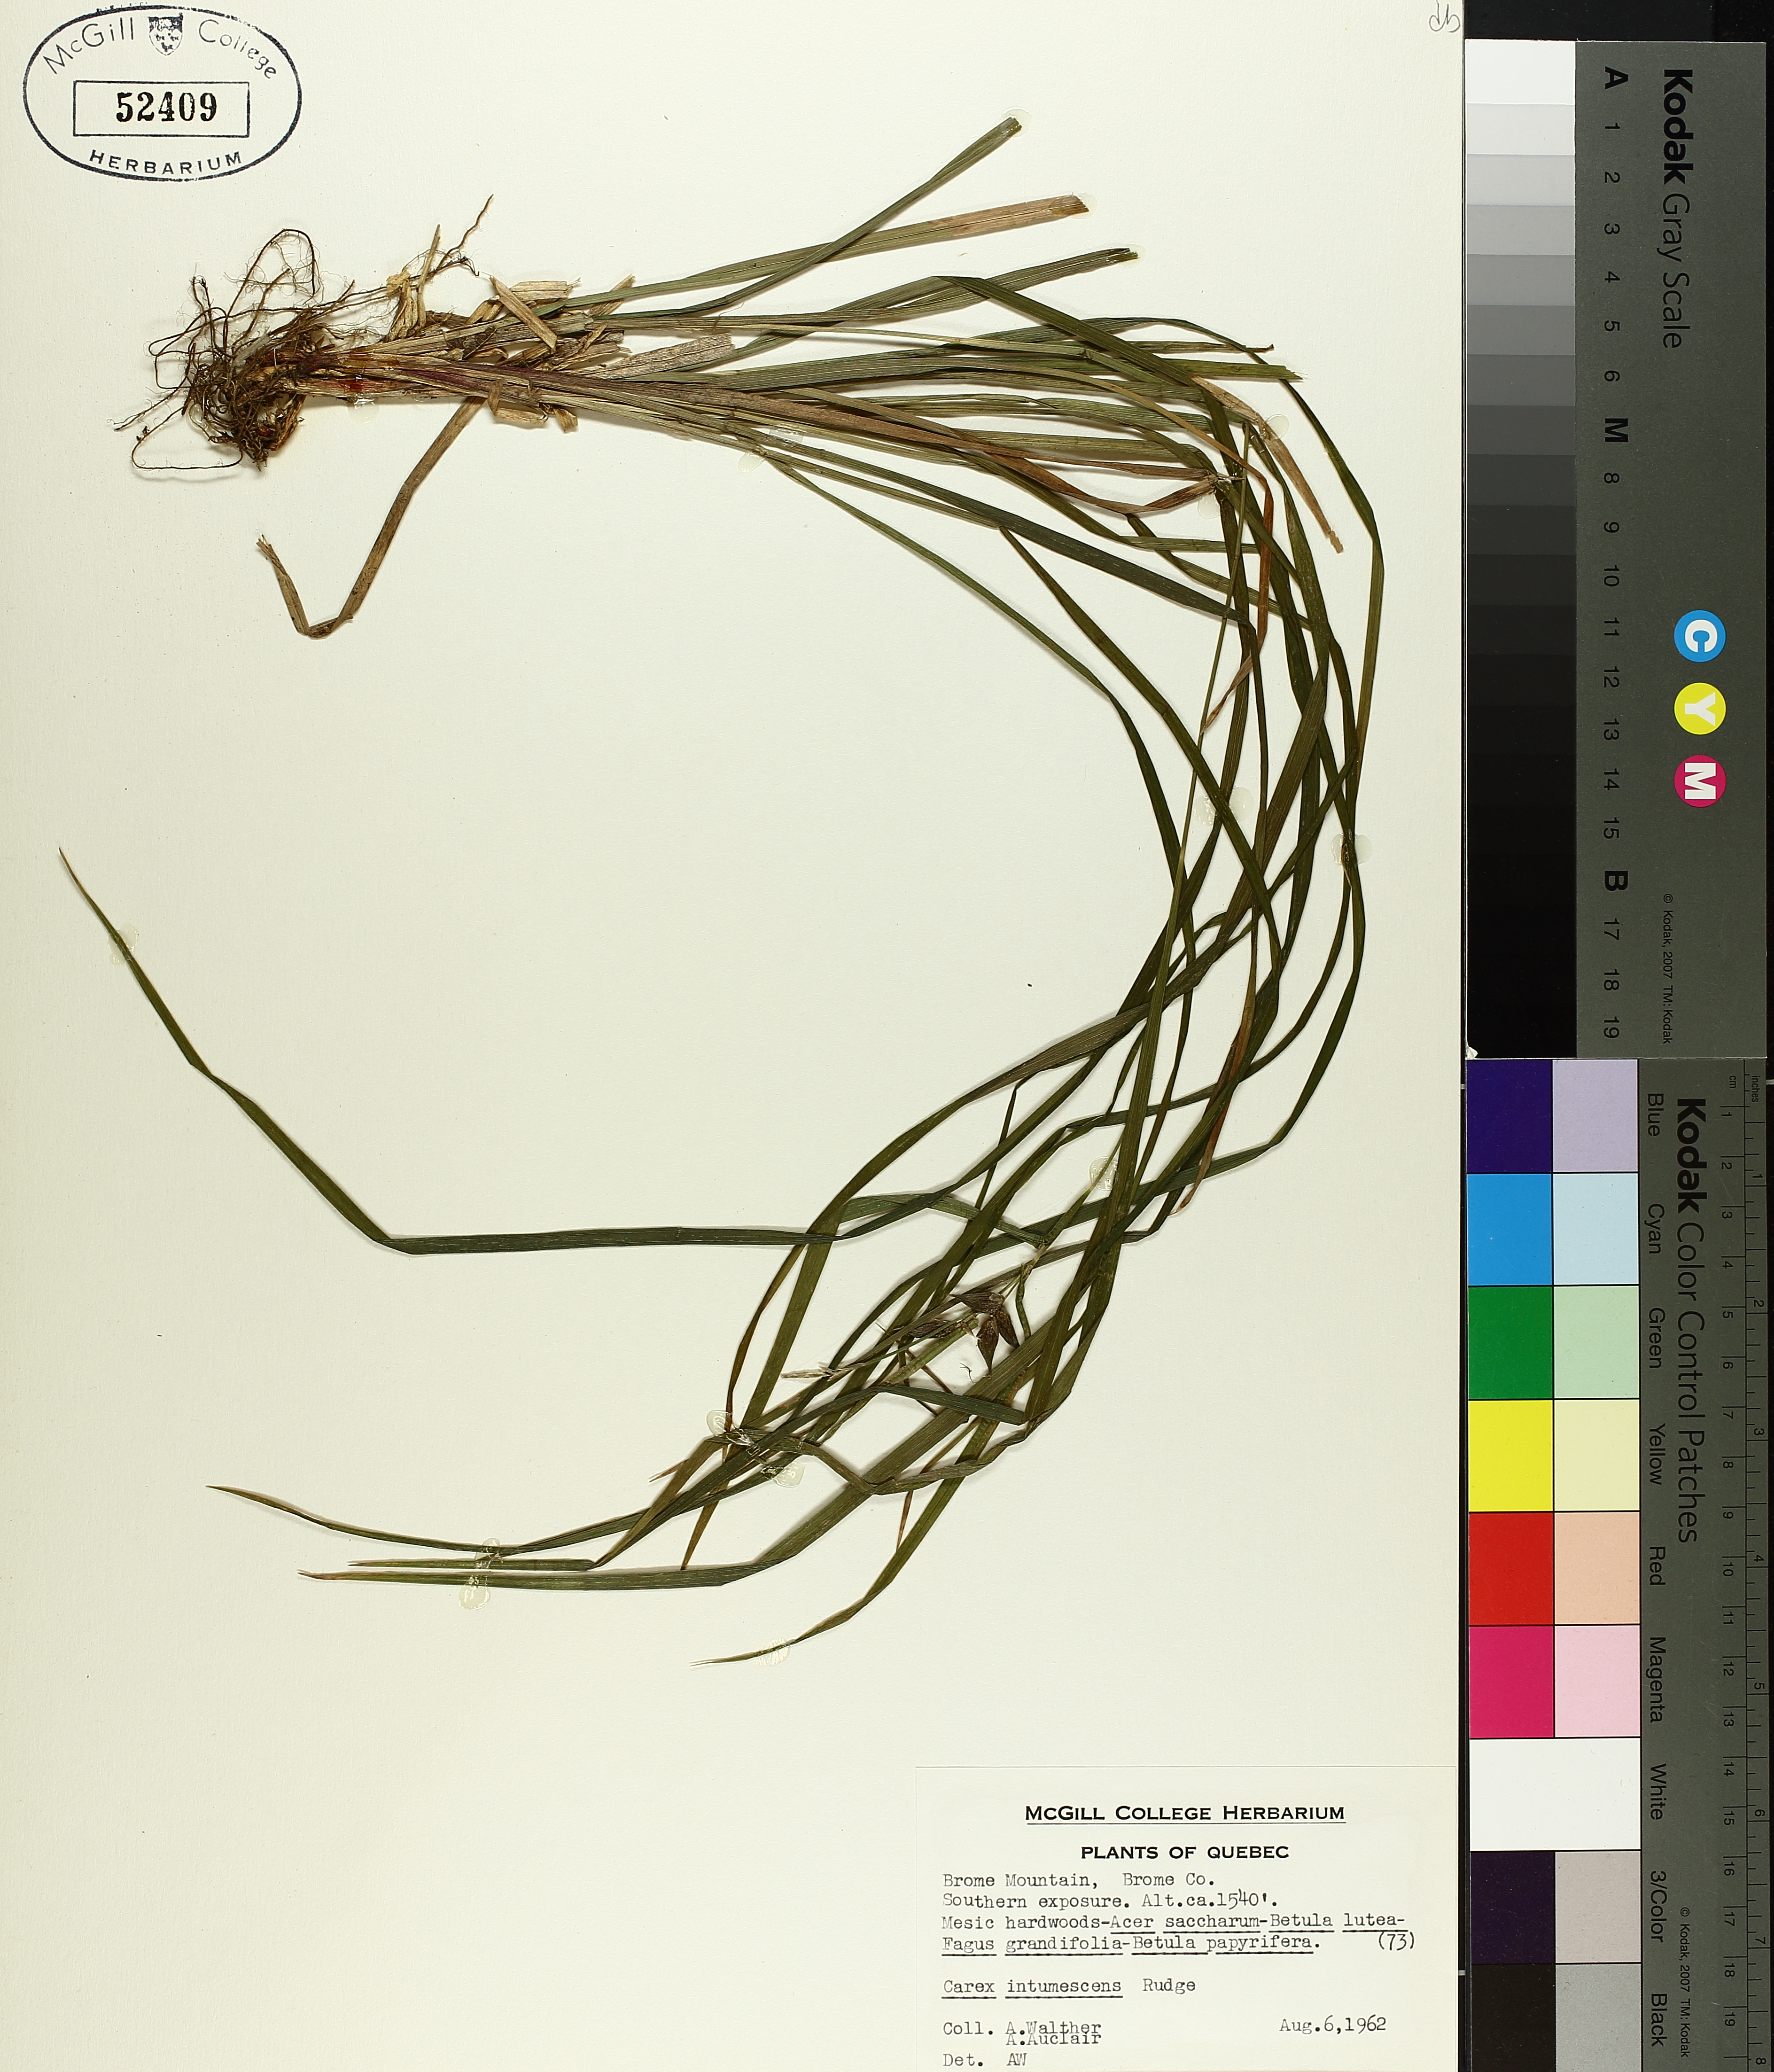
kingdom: Plantae
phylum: Tracheophyta
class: Liliopsida
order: Poales
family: Cyperaceae
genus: Carex
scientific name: Carex intumescens
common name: Greater bladder sedge
